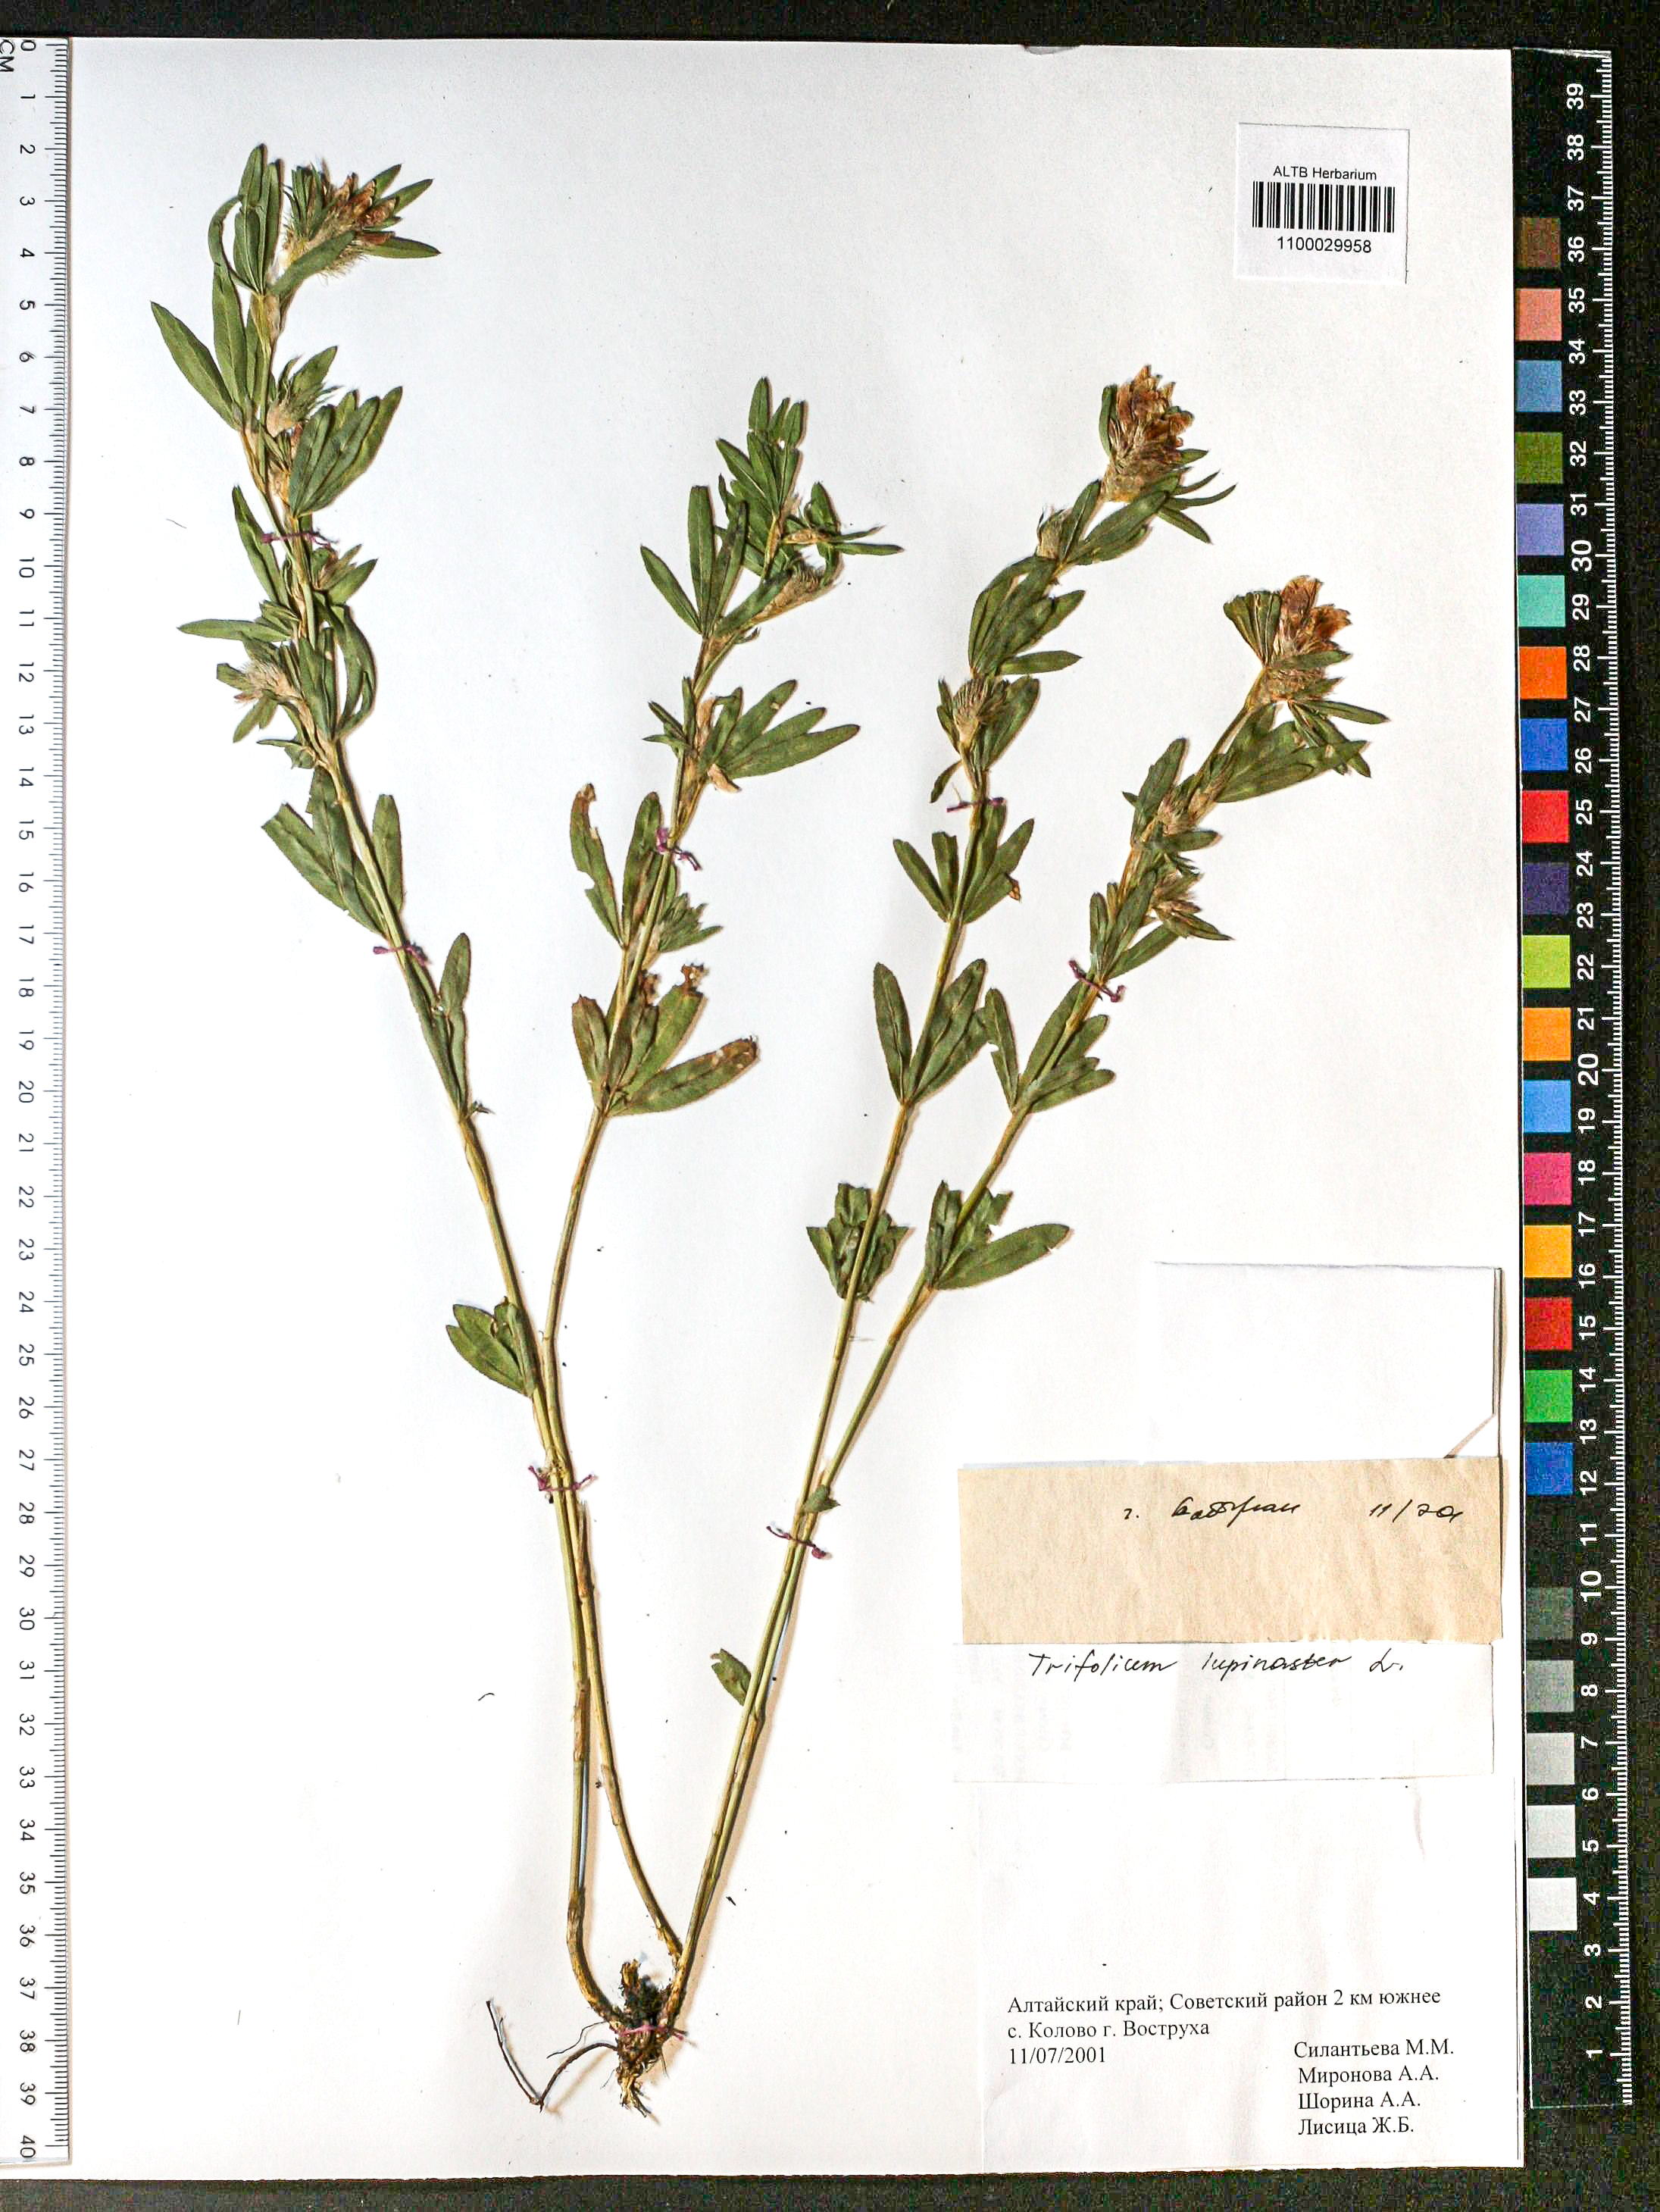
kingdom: Plantae
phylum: Tracheophyta
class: Magnoliopsida
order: Fabales
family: Fabaceae
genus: Trifolium
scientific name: Trifolium lupinaster
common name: Lupine clover
